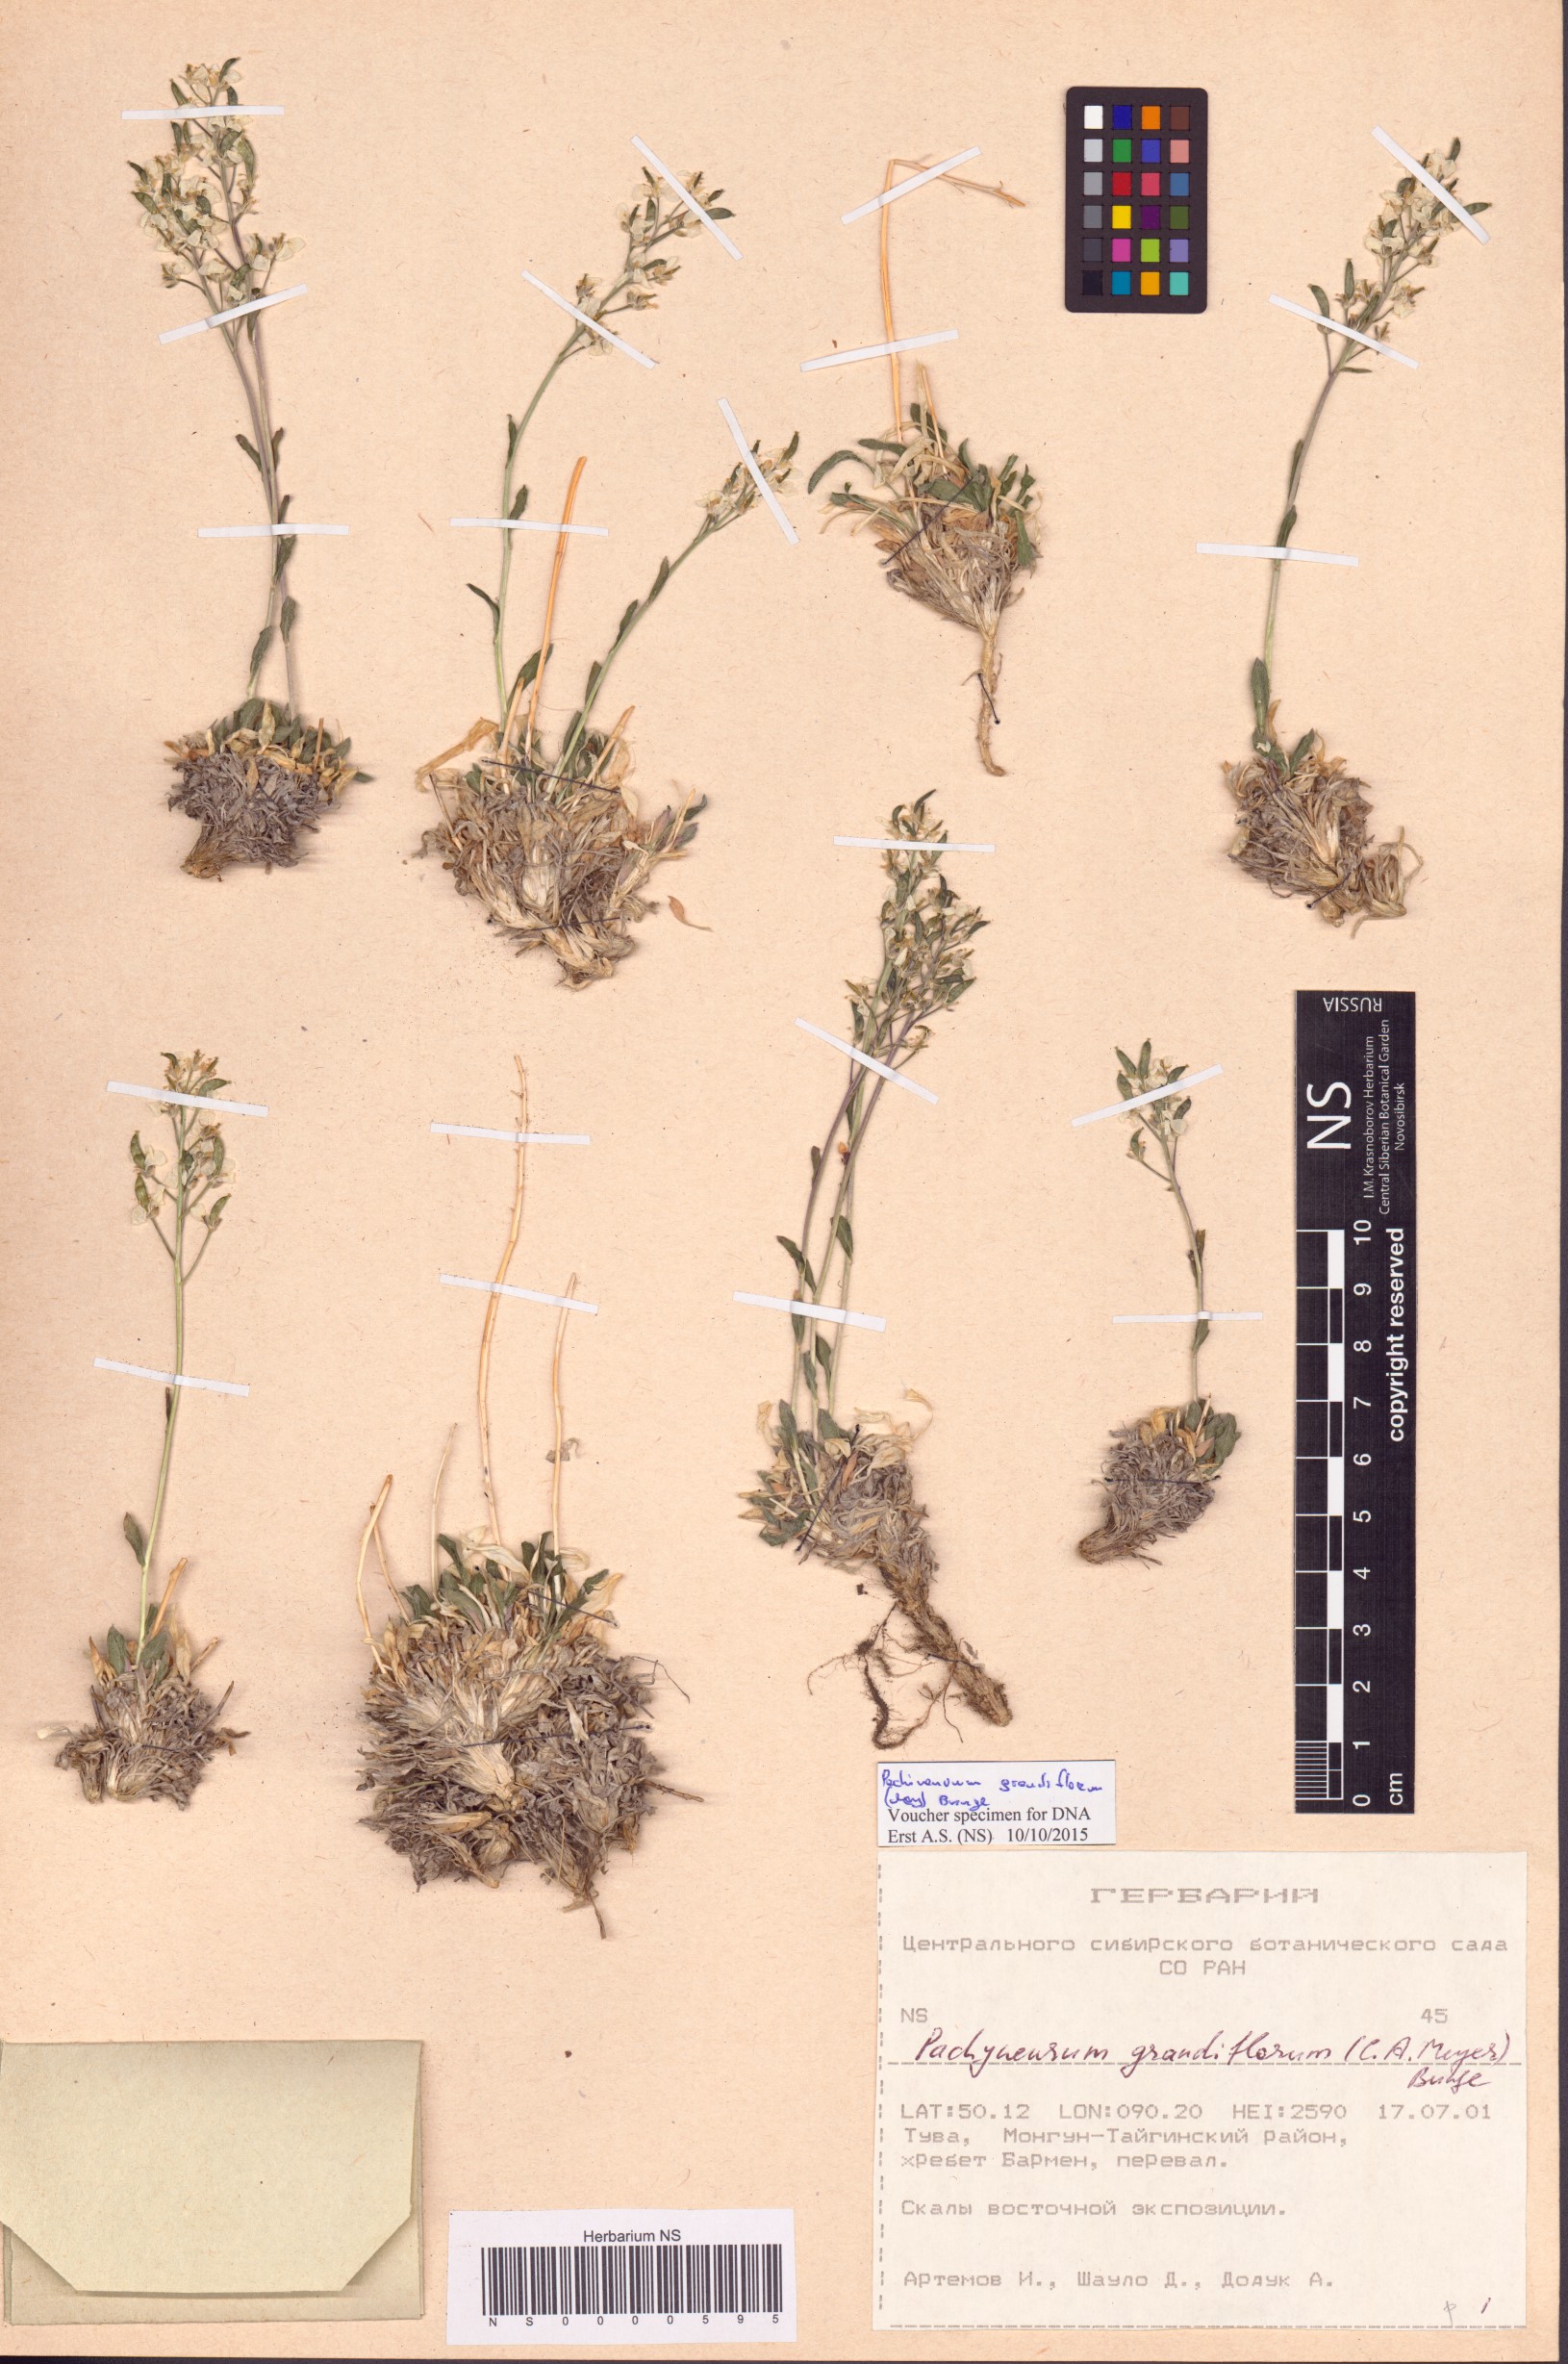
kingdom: Plantae
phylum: Tracheophyta
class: Magnoliopsida
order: Brassicales
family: Brassicaceae
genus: Pachyneurum
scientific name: Pachyneurum grandiflorum
